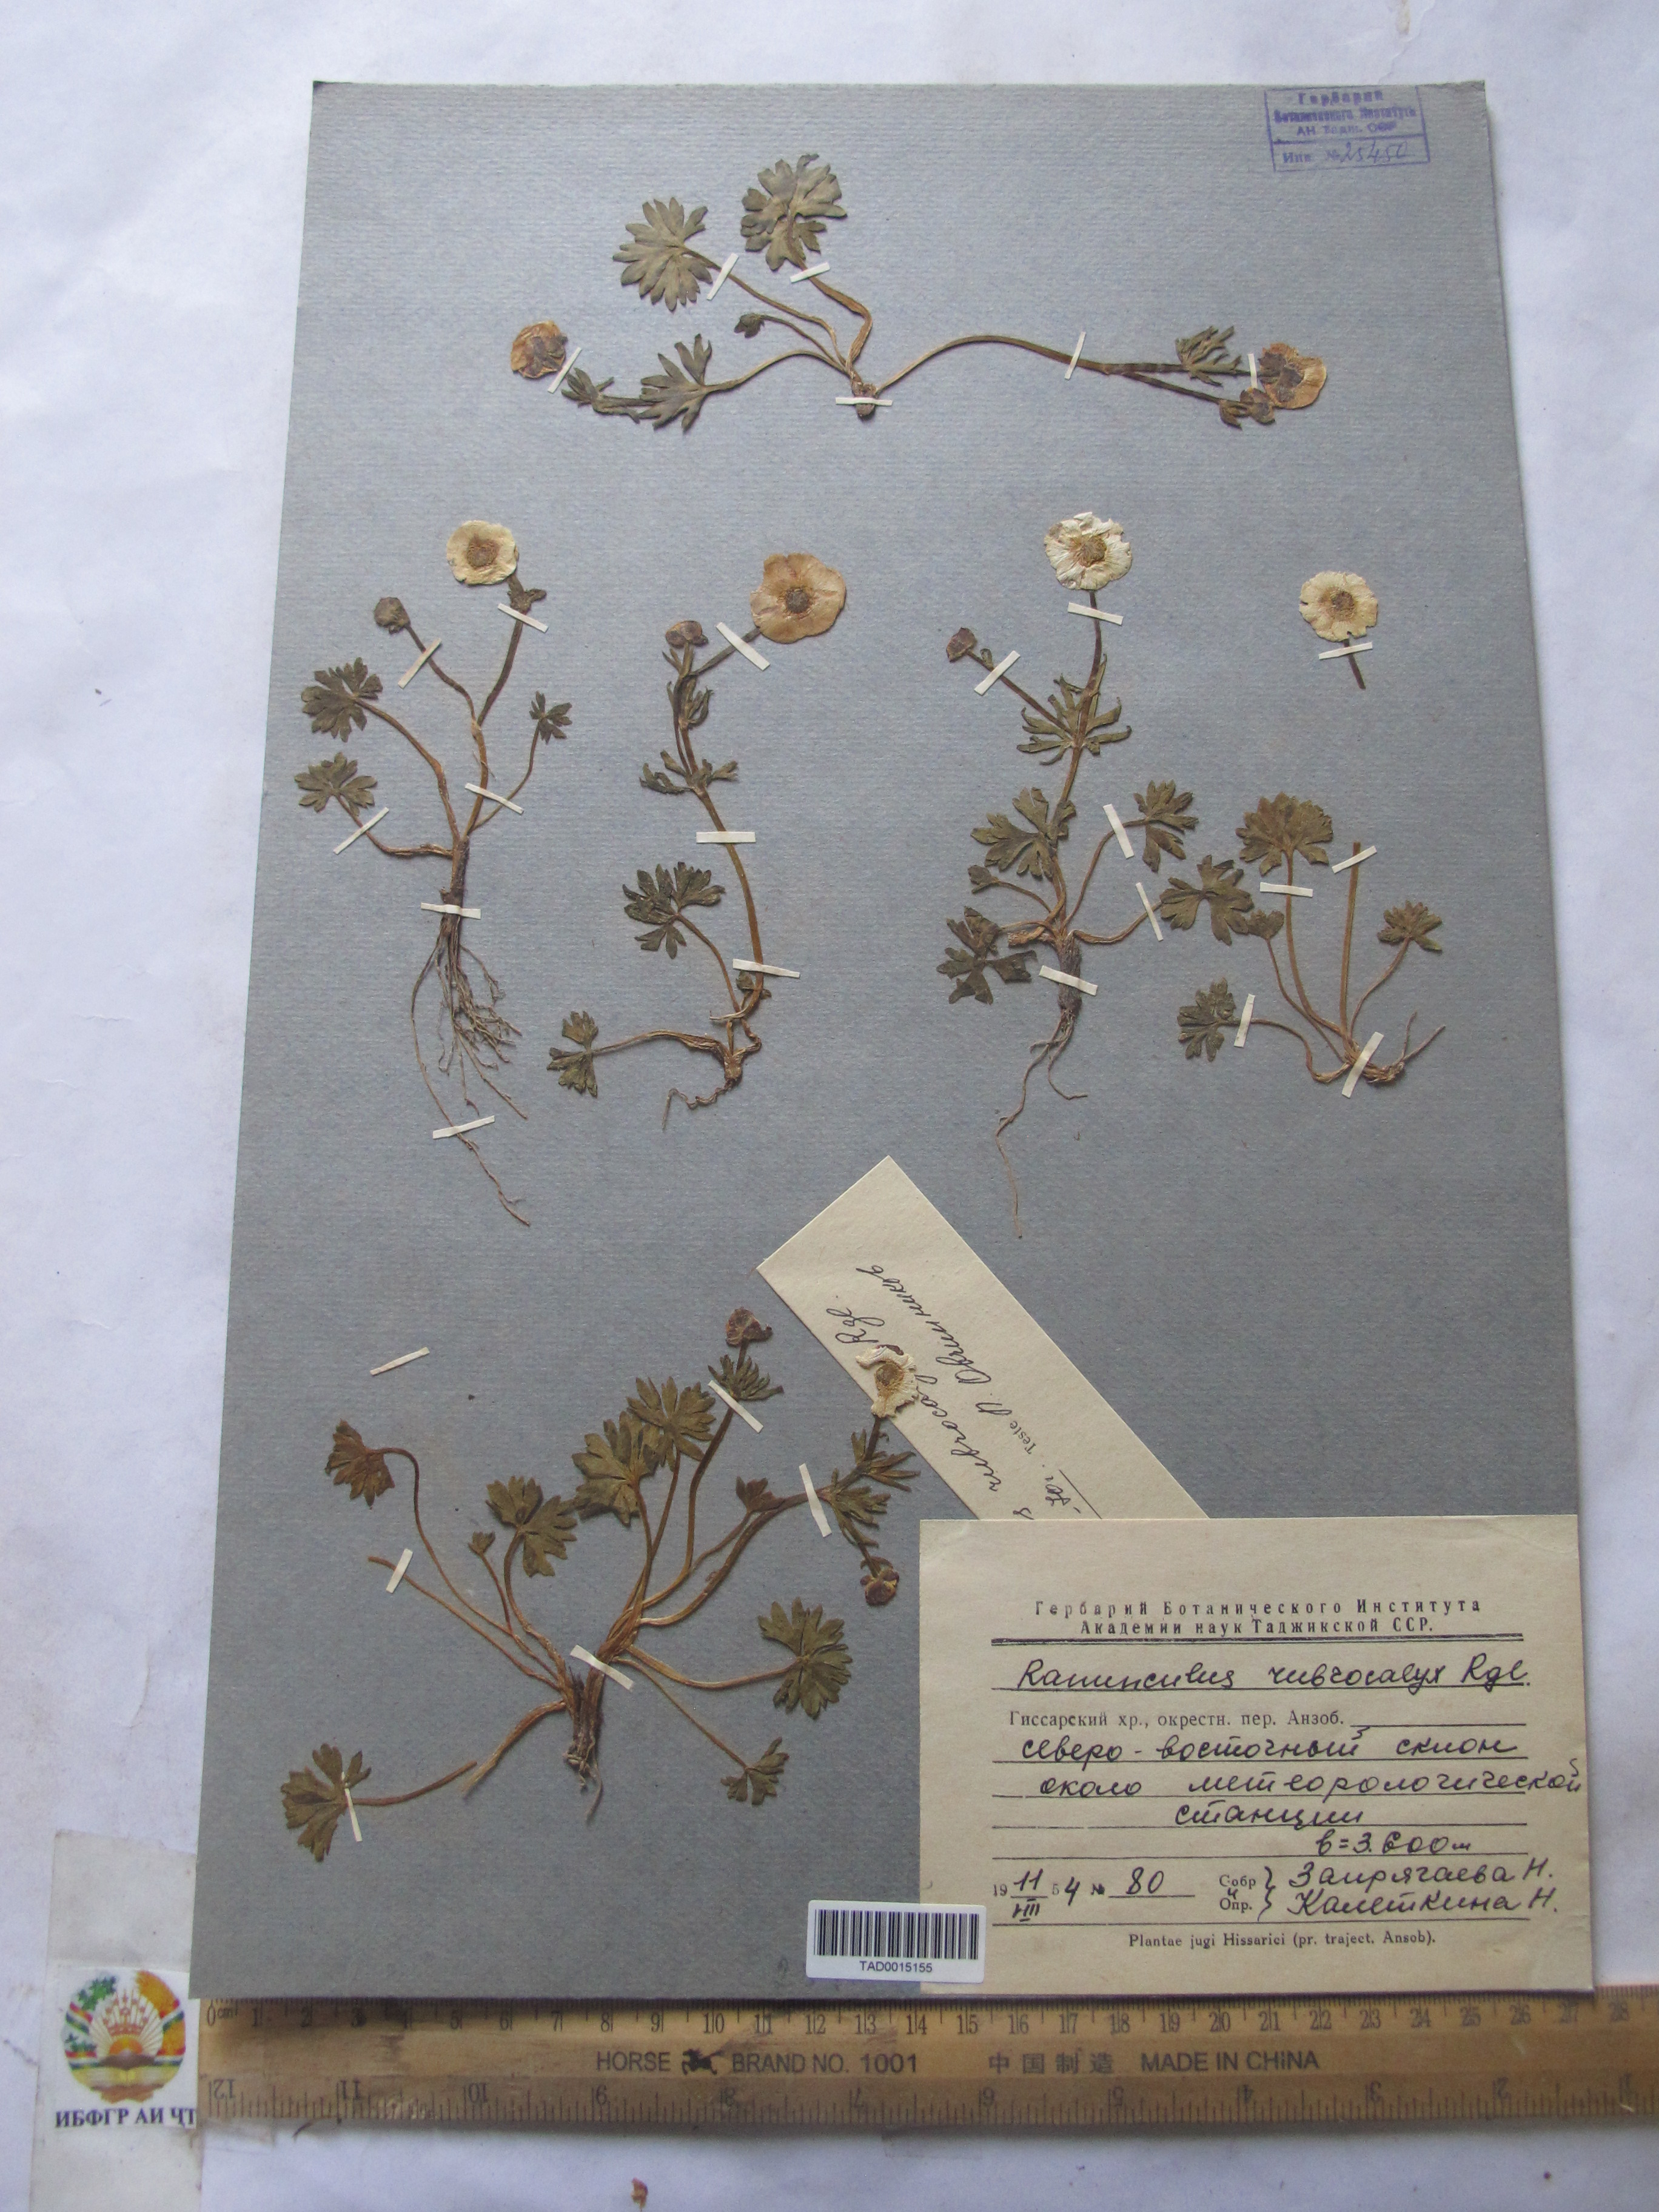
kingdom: Plantae
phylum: Tracheophyta
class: Magnoliopsida
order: Ranunculales
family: Ranunculaceae
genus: Ranunculus
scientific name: Ranunculus rubrocalyx
